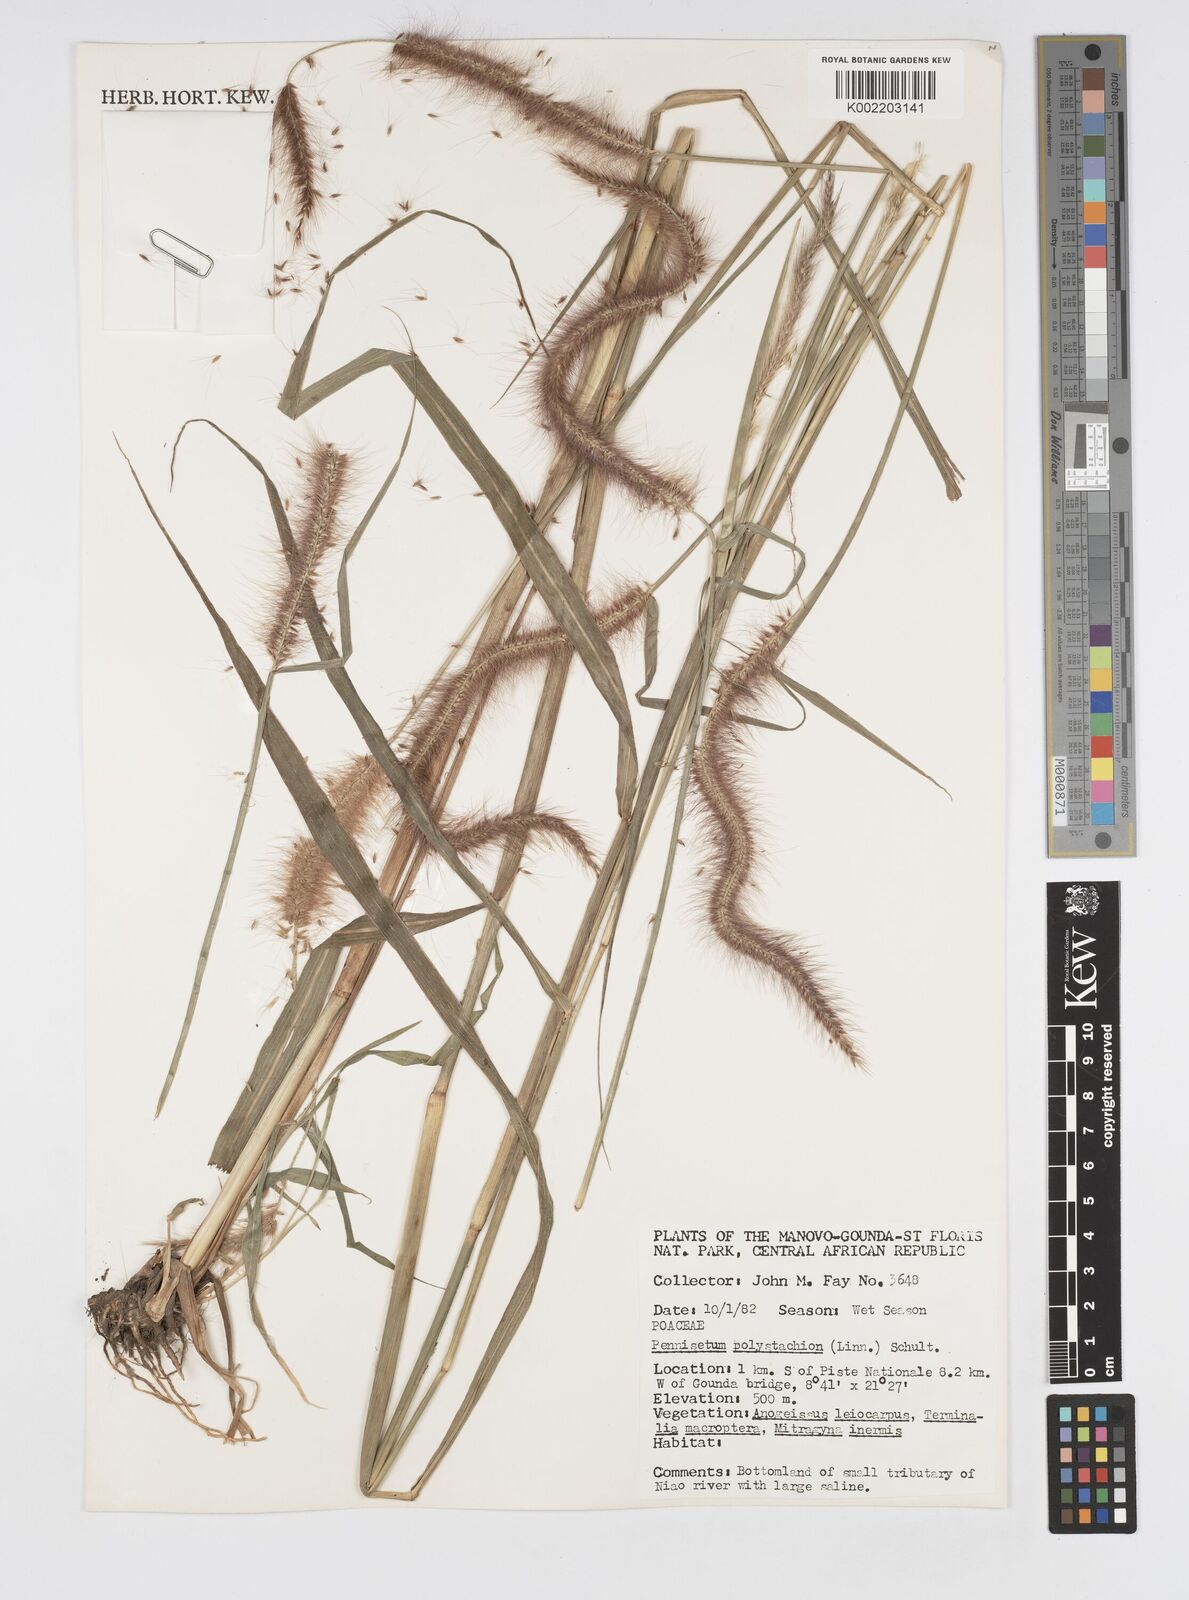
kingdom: Plantae
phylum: Tracheophyta
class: Liliopsida
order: Poales
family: Poaceae
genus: Setaria
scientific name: Setaria parviflora
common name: Knotroot bristle-grass
